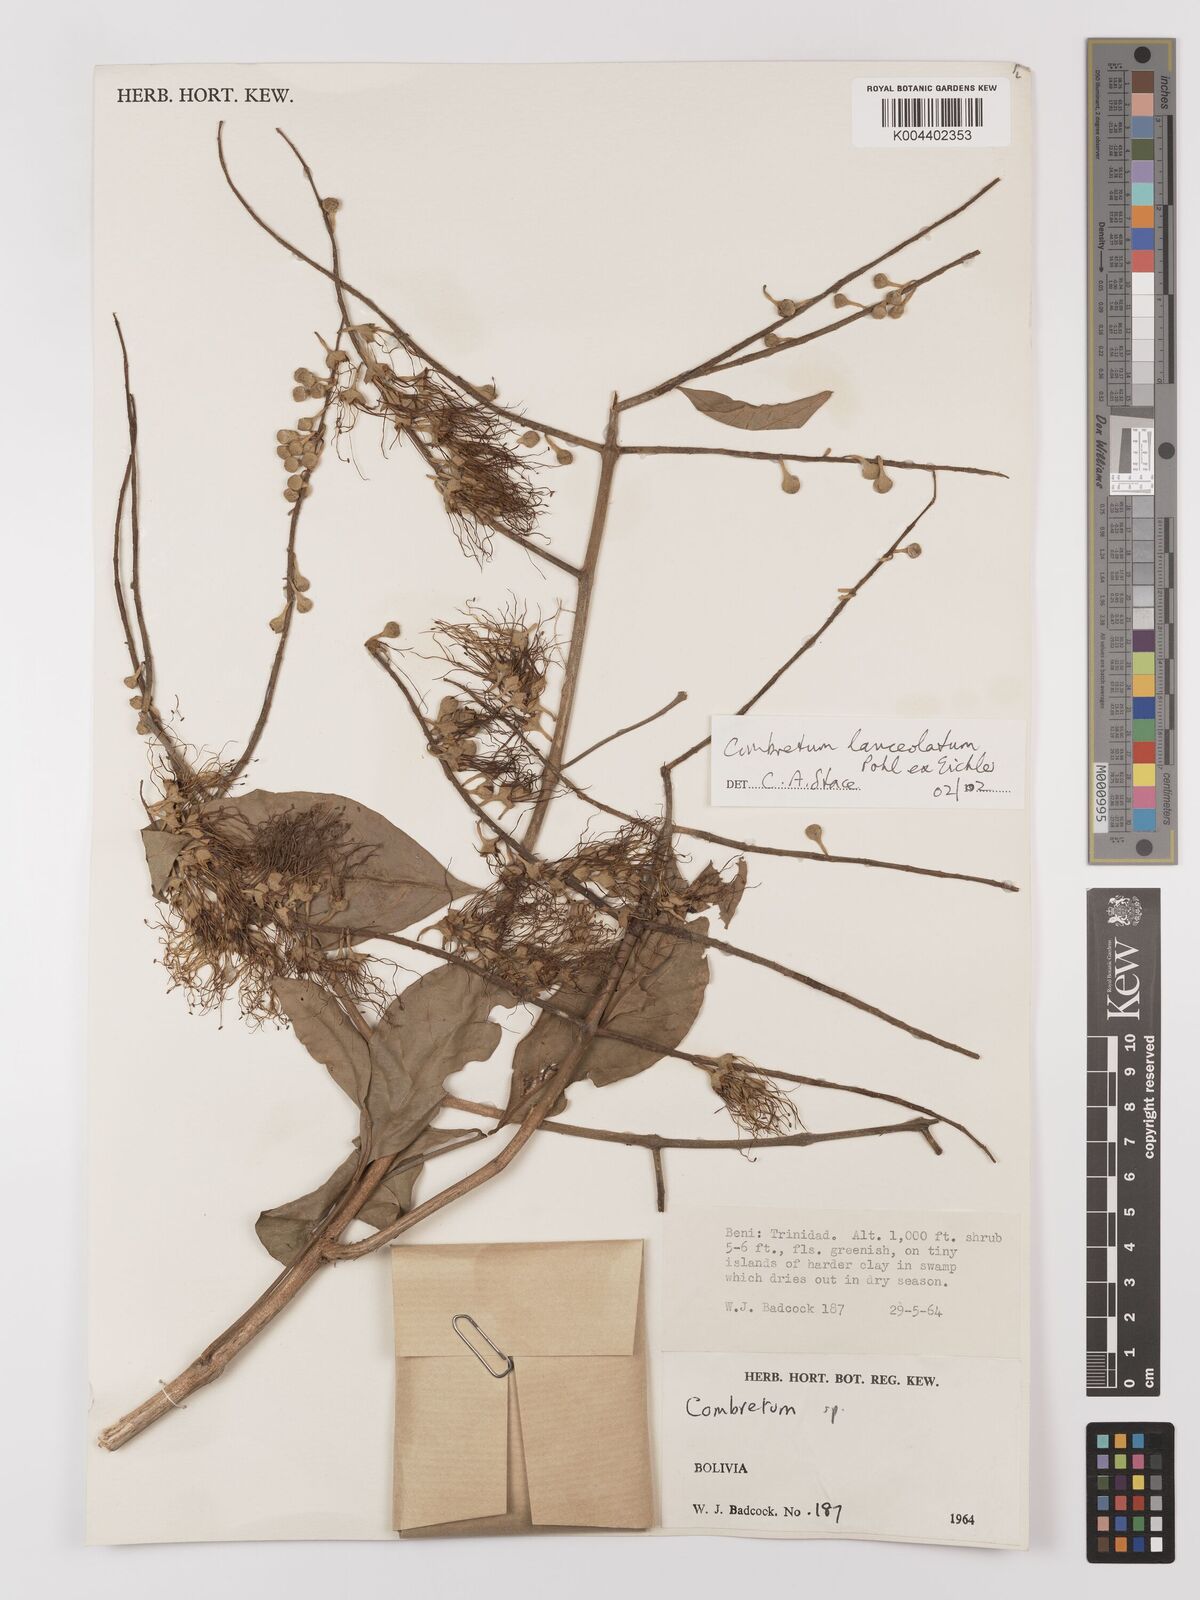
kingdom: Plantae
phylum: Tracheophyta
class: Magnoliopsida
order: Myrtales
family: Combretaceae
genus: Combretum
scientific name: Combretum lanceolatum
